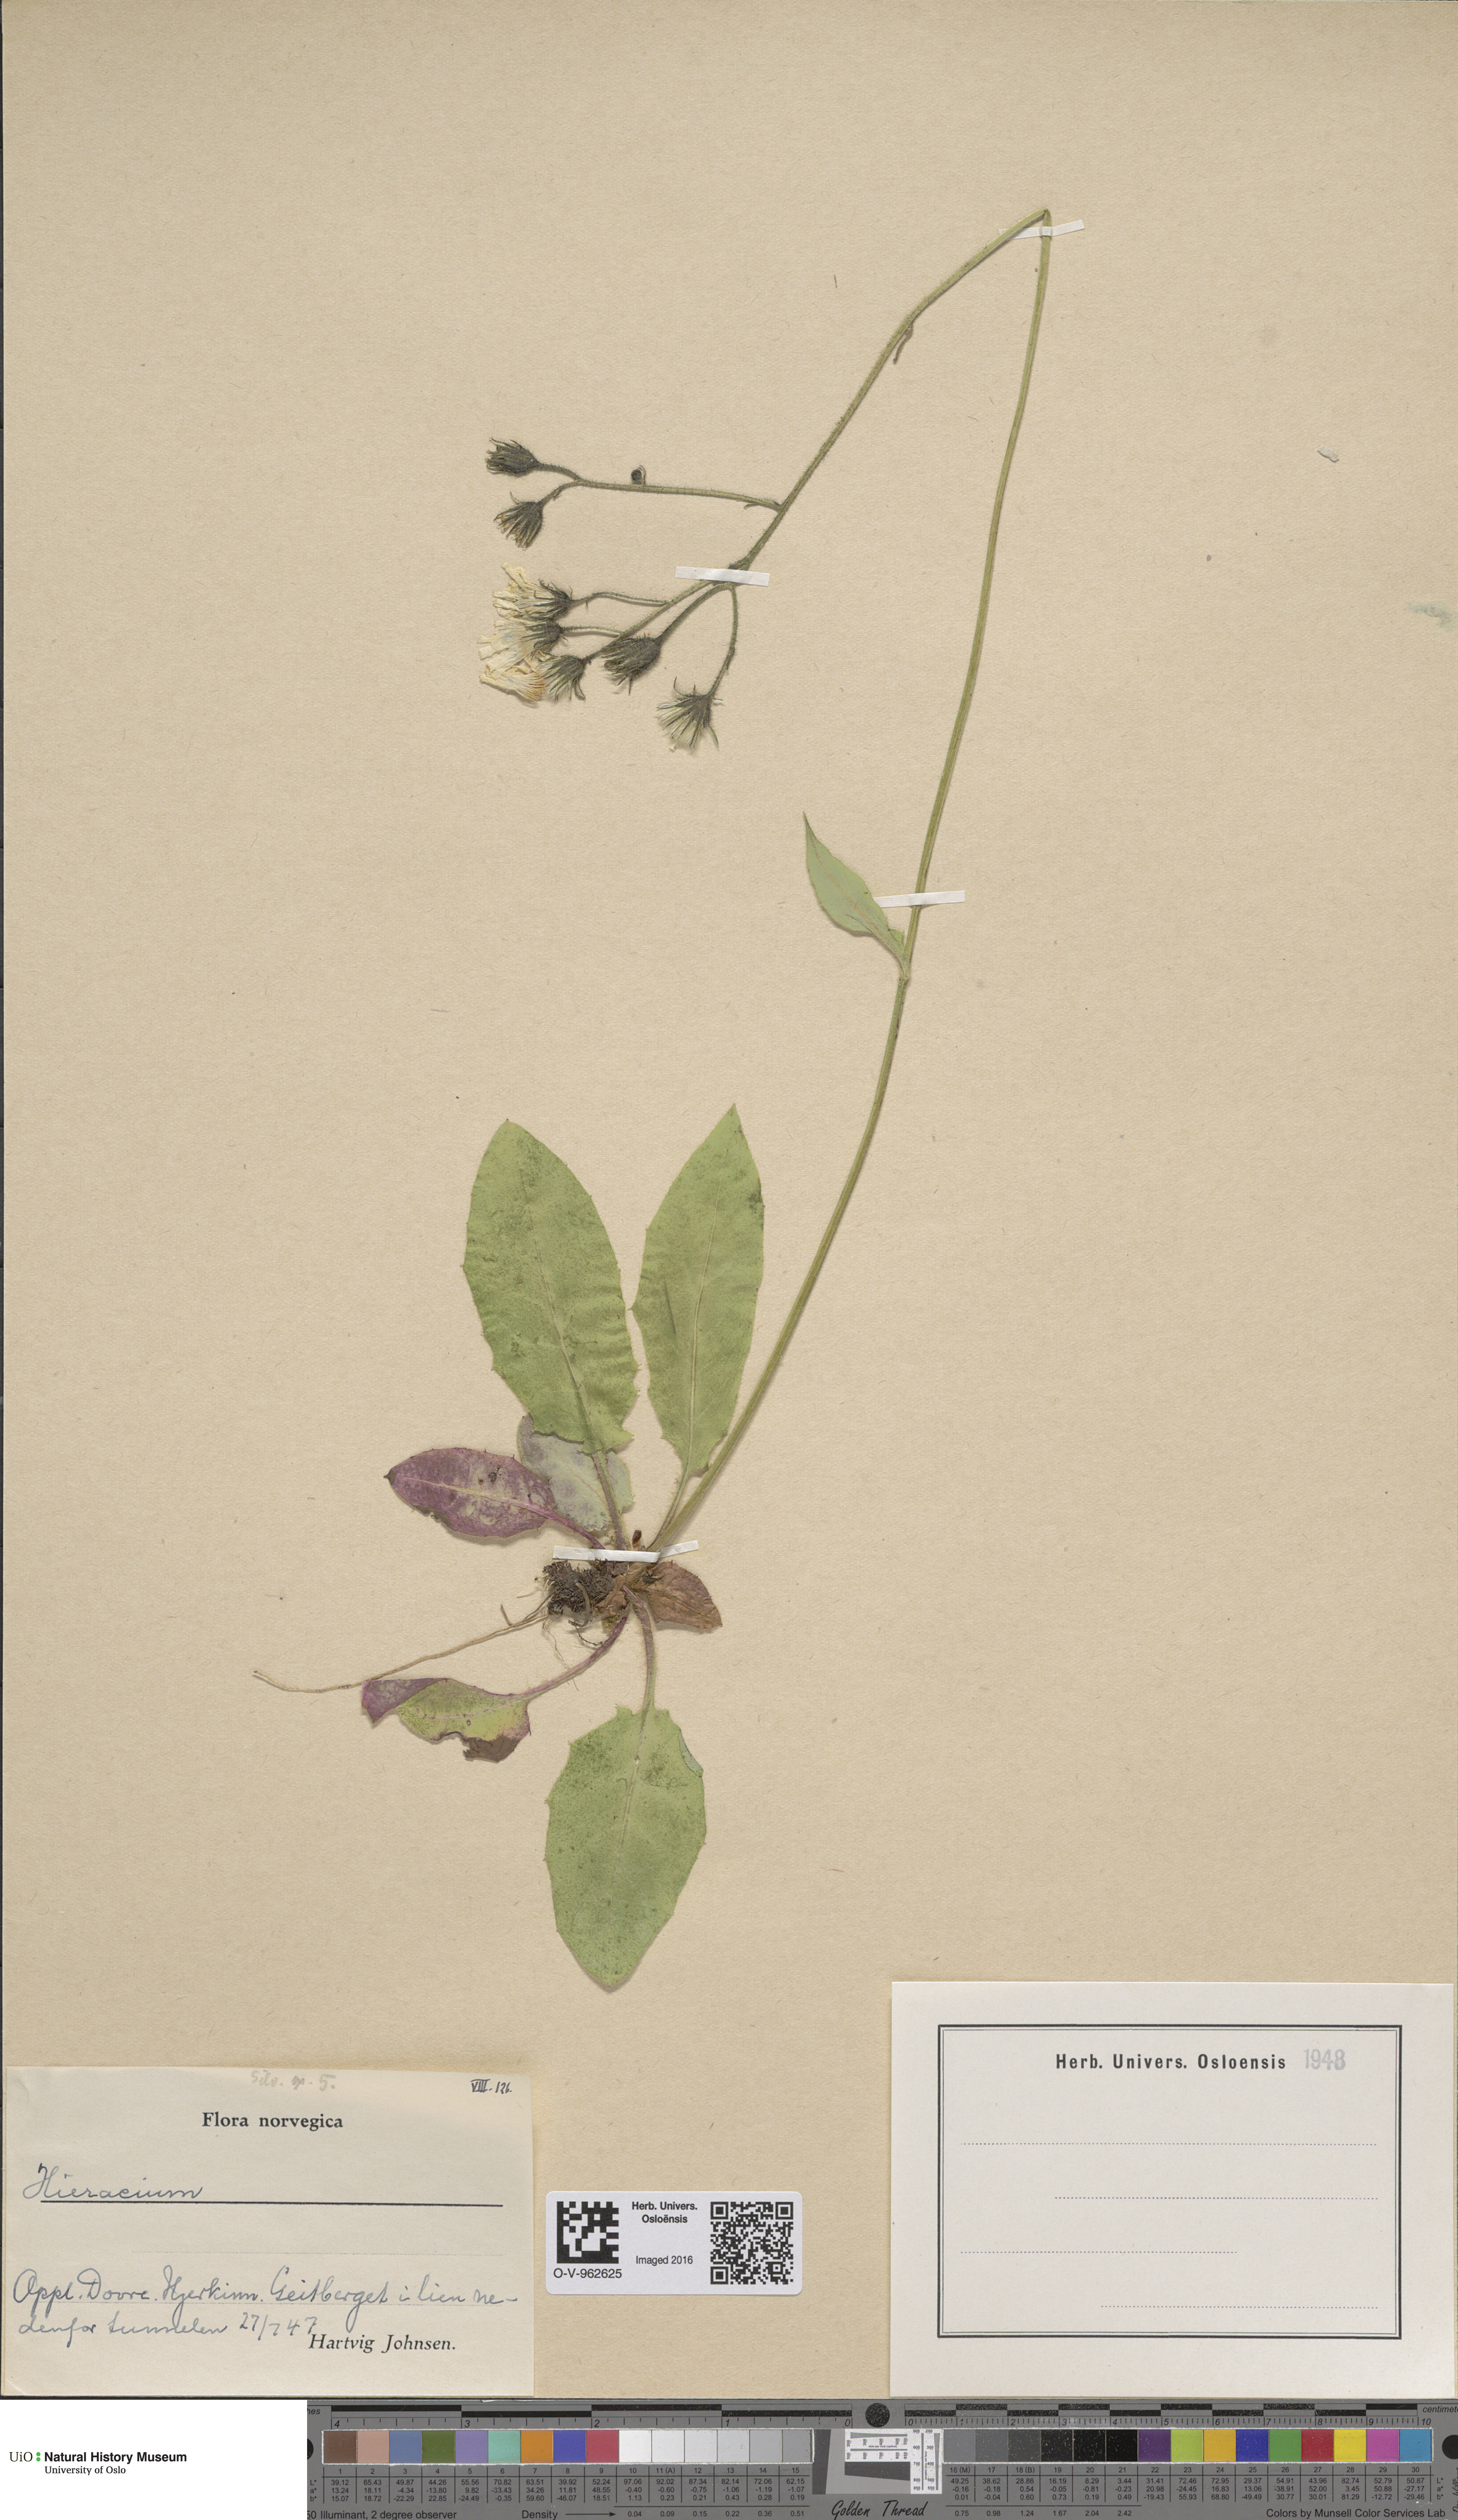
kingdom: Plantae
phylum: Tracheophyta
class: Magnoliopsida
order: Asterales
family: Asteraceae
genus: Hieracium
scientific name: Hieracium
